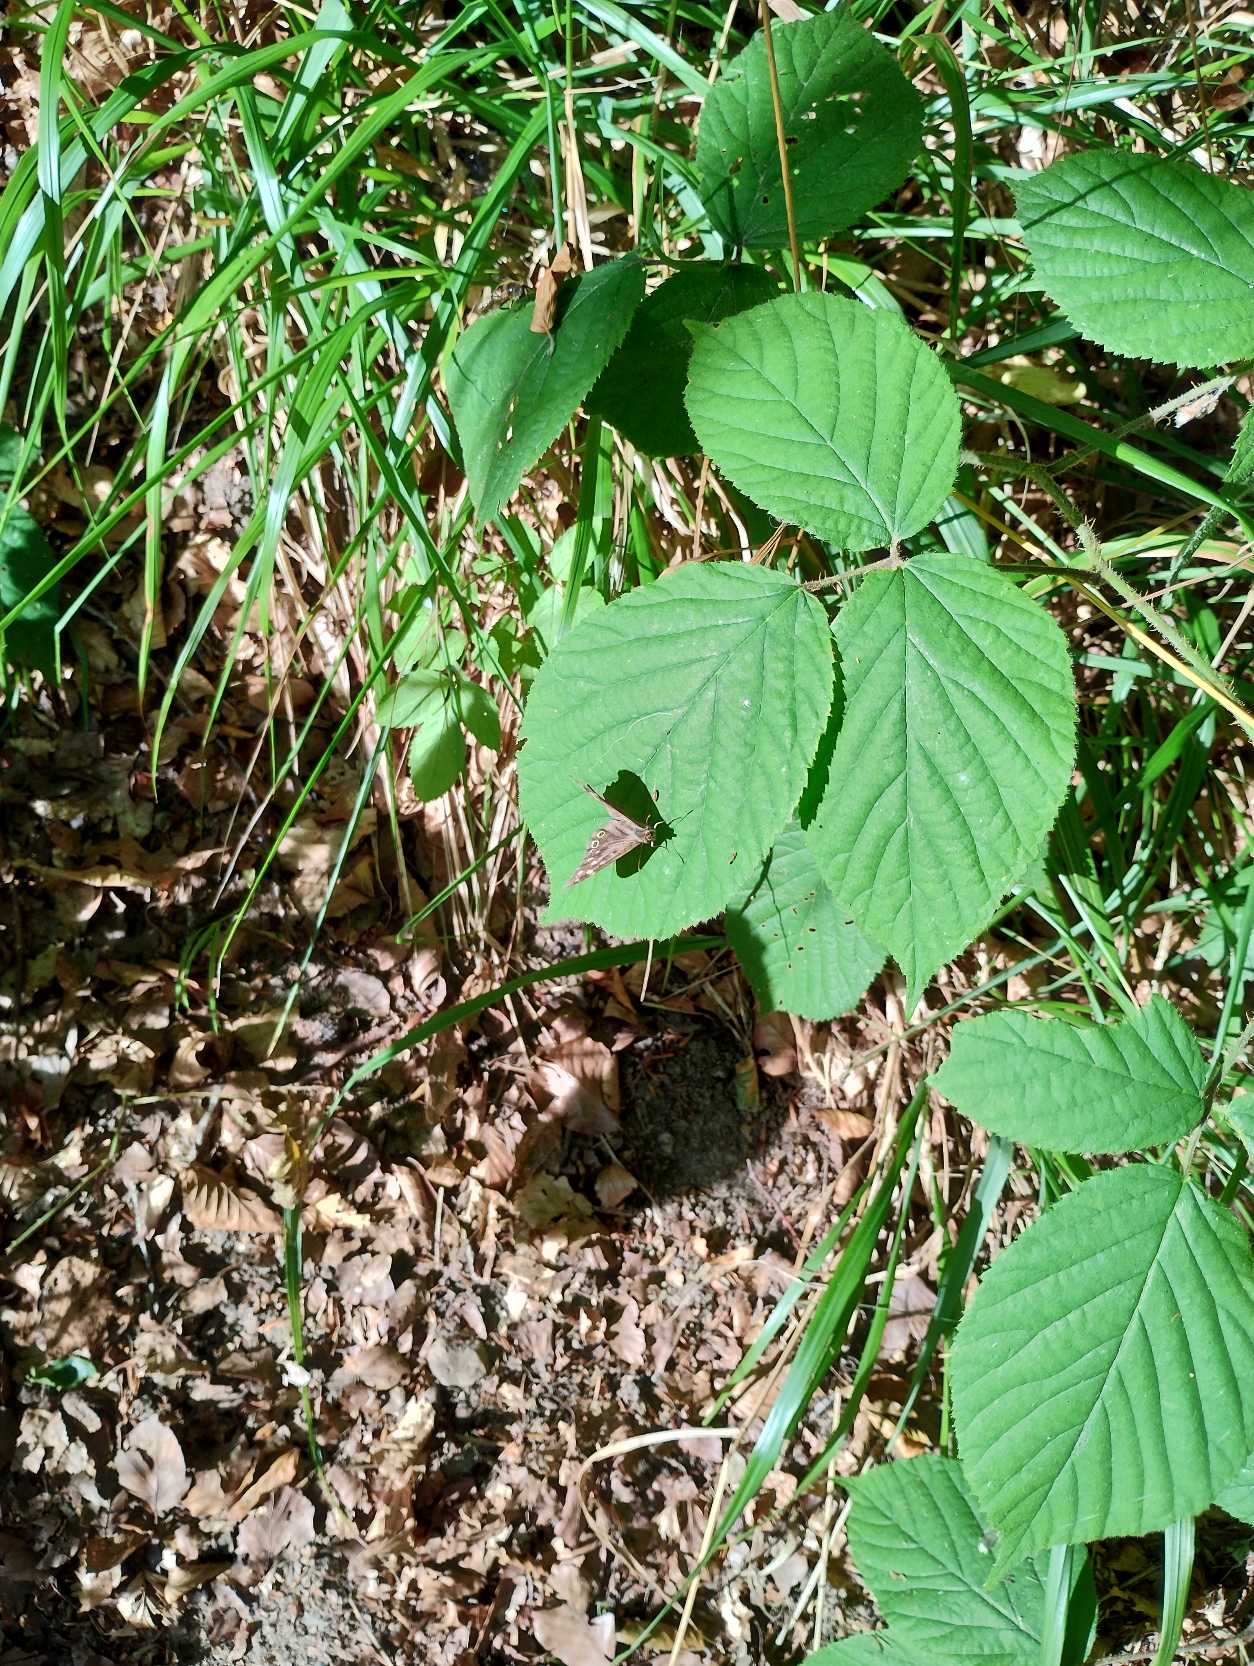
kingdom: Animalia
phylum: Arthropoda
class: Insecta
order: Lepidoptera
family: Nymphalidae
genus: Pararge
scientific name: Pararge aegeria
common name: Skovrandøje
